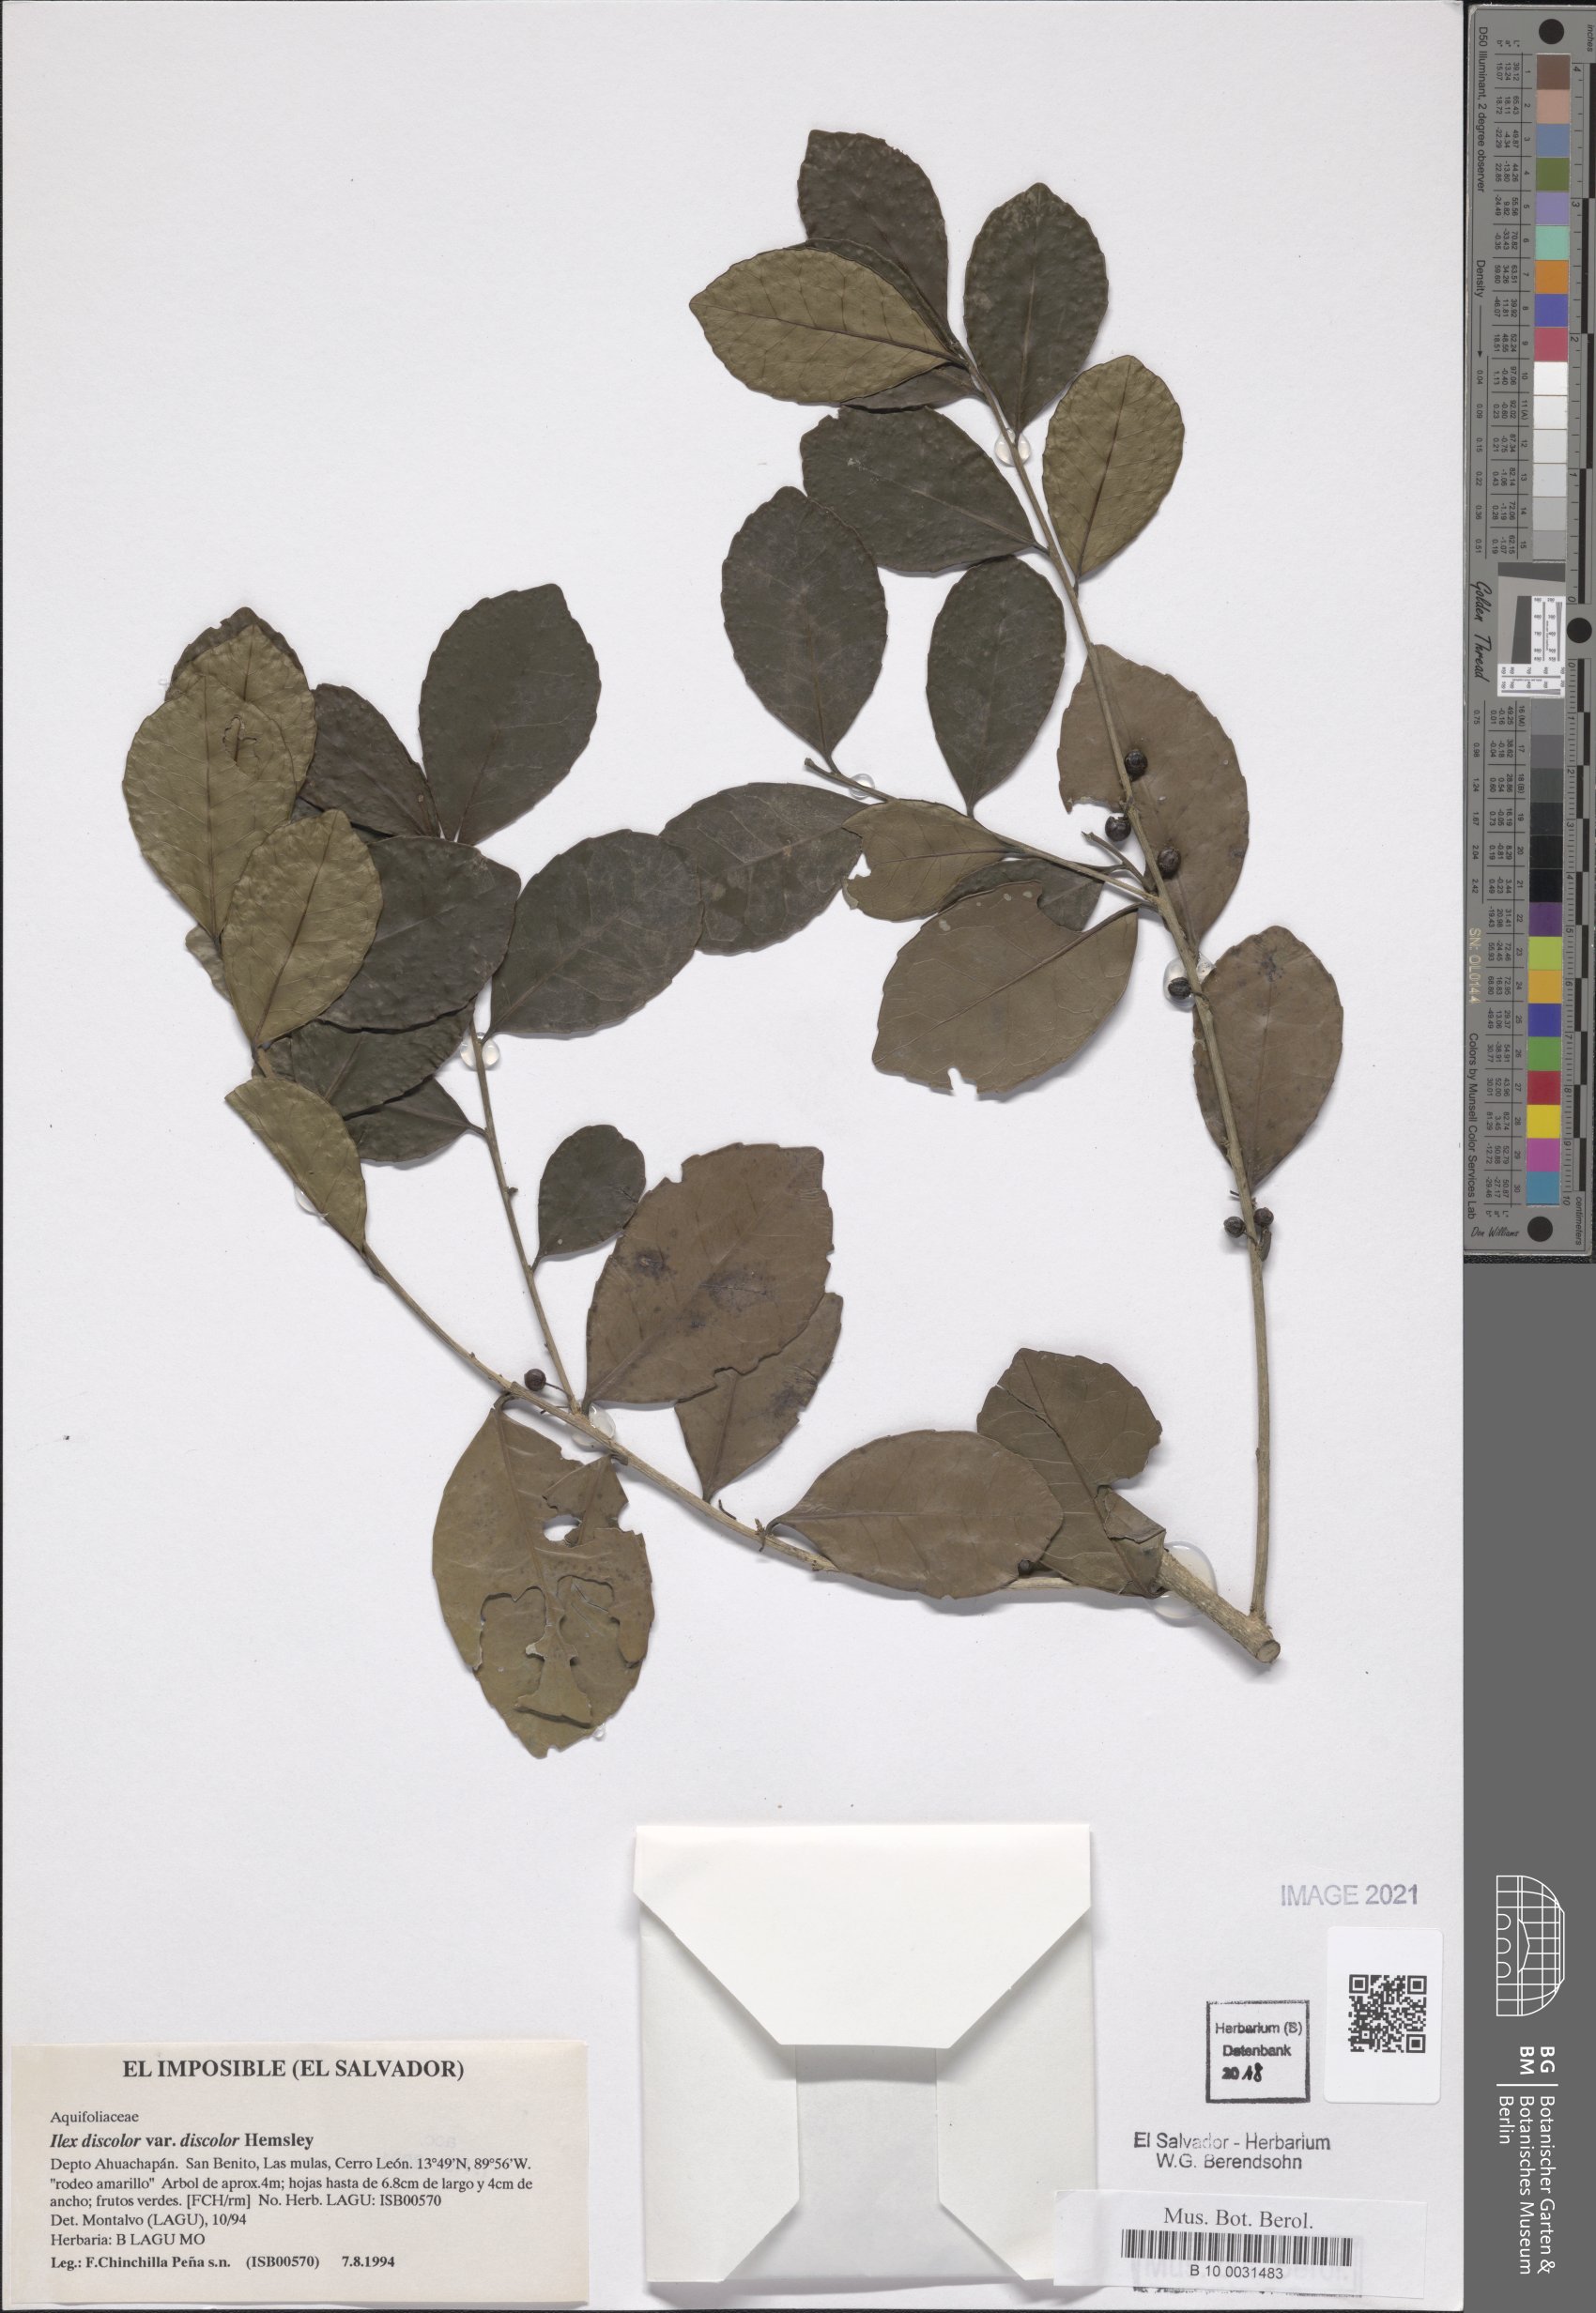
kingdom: Plantae
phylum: Tracheophyta
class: Magnoliopsida
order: Aquifoliales
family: Aquifoliaceae
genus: Ilex
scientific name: Ilex discolor
